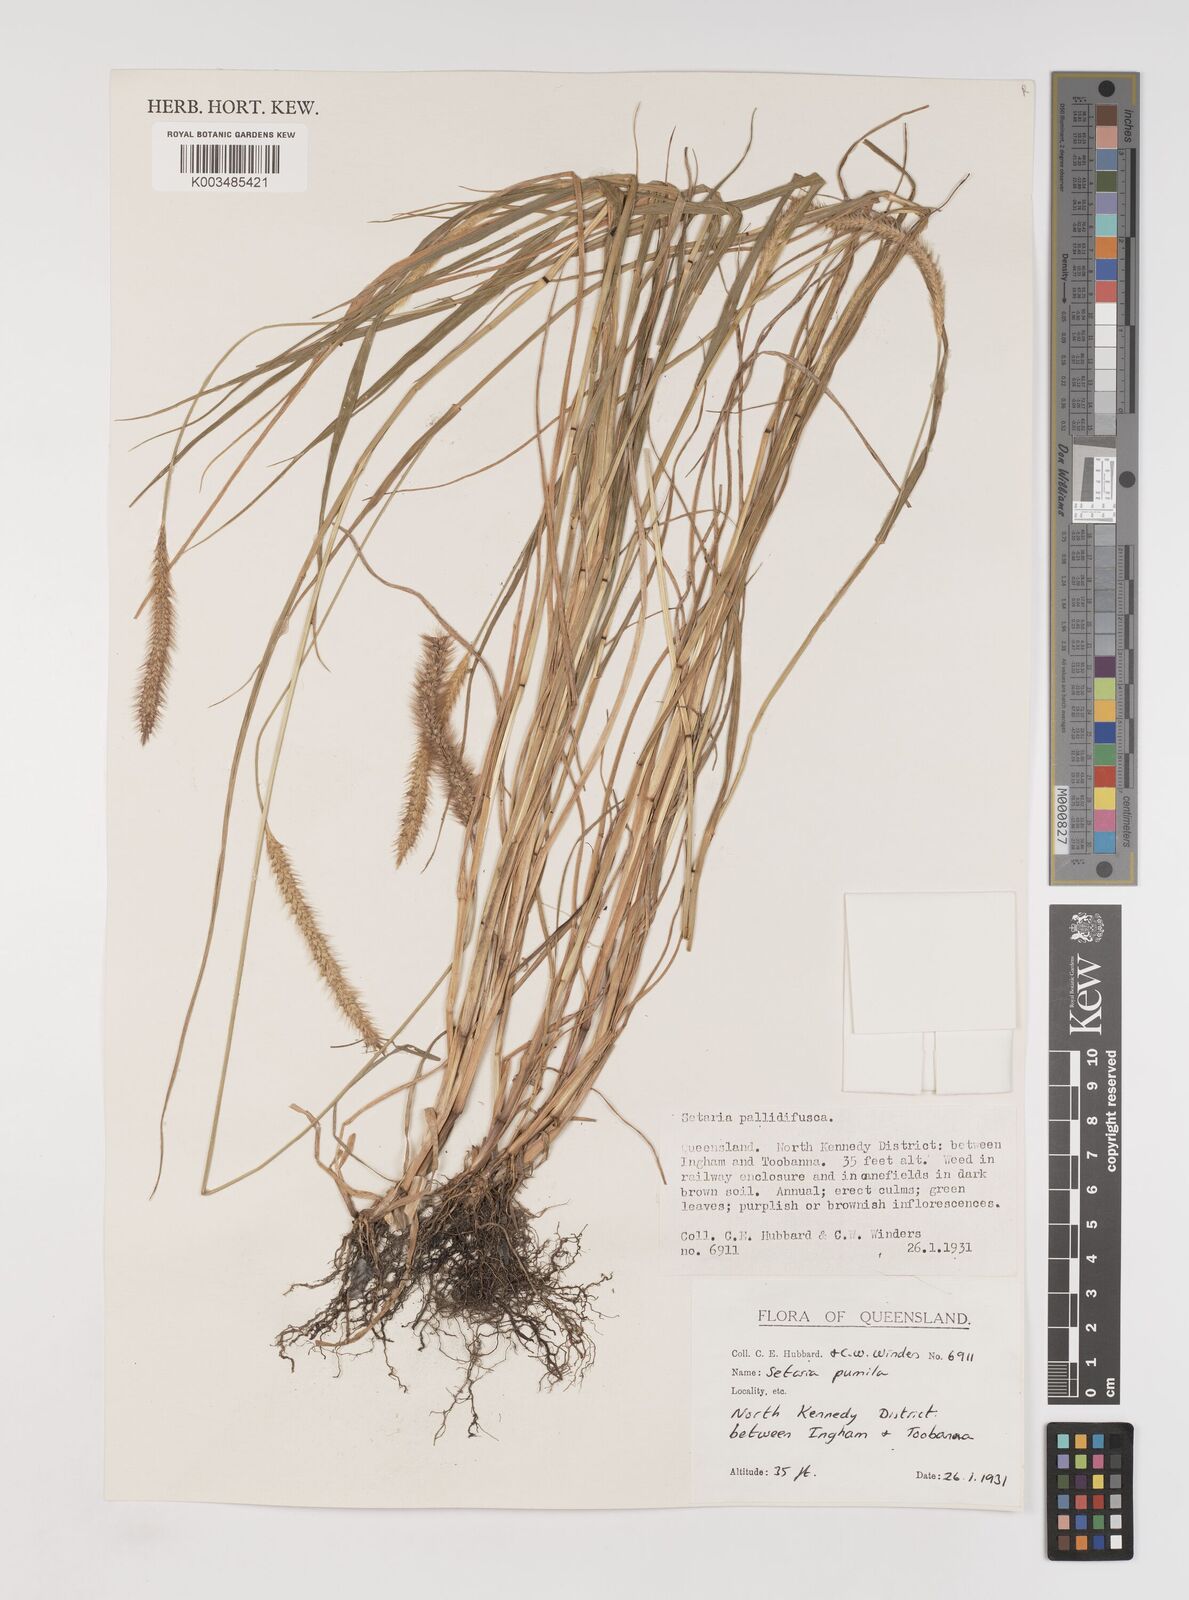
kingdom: Plantae
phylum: Tracheophyta
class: Liliopsida
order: Poales
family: Poaceae
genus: Setaria
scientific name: Setaria pumila
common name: Yellow bristle-grass
